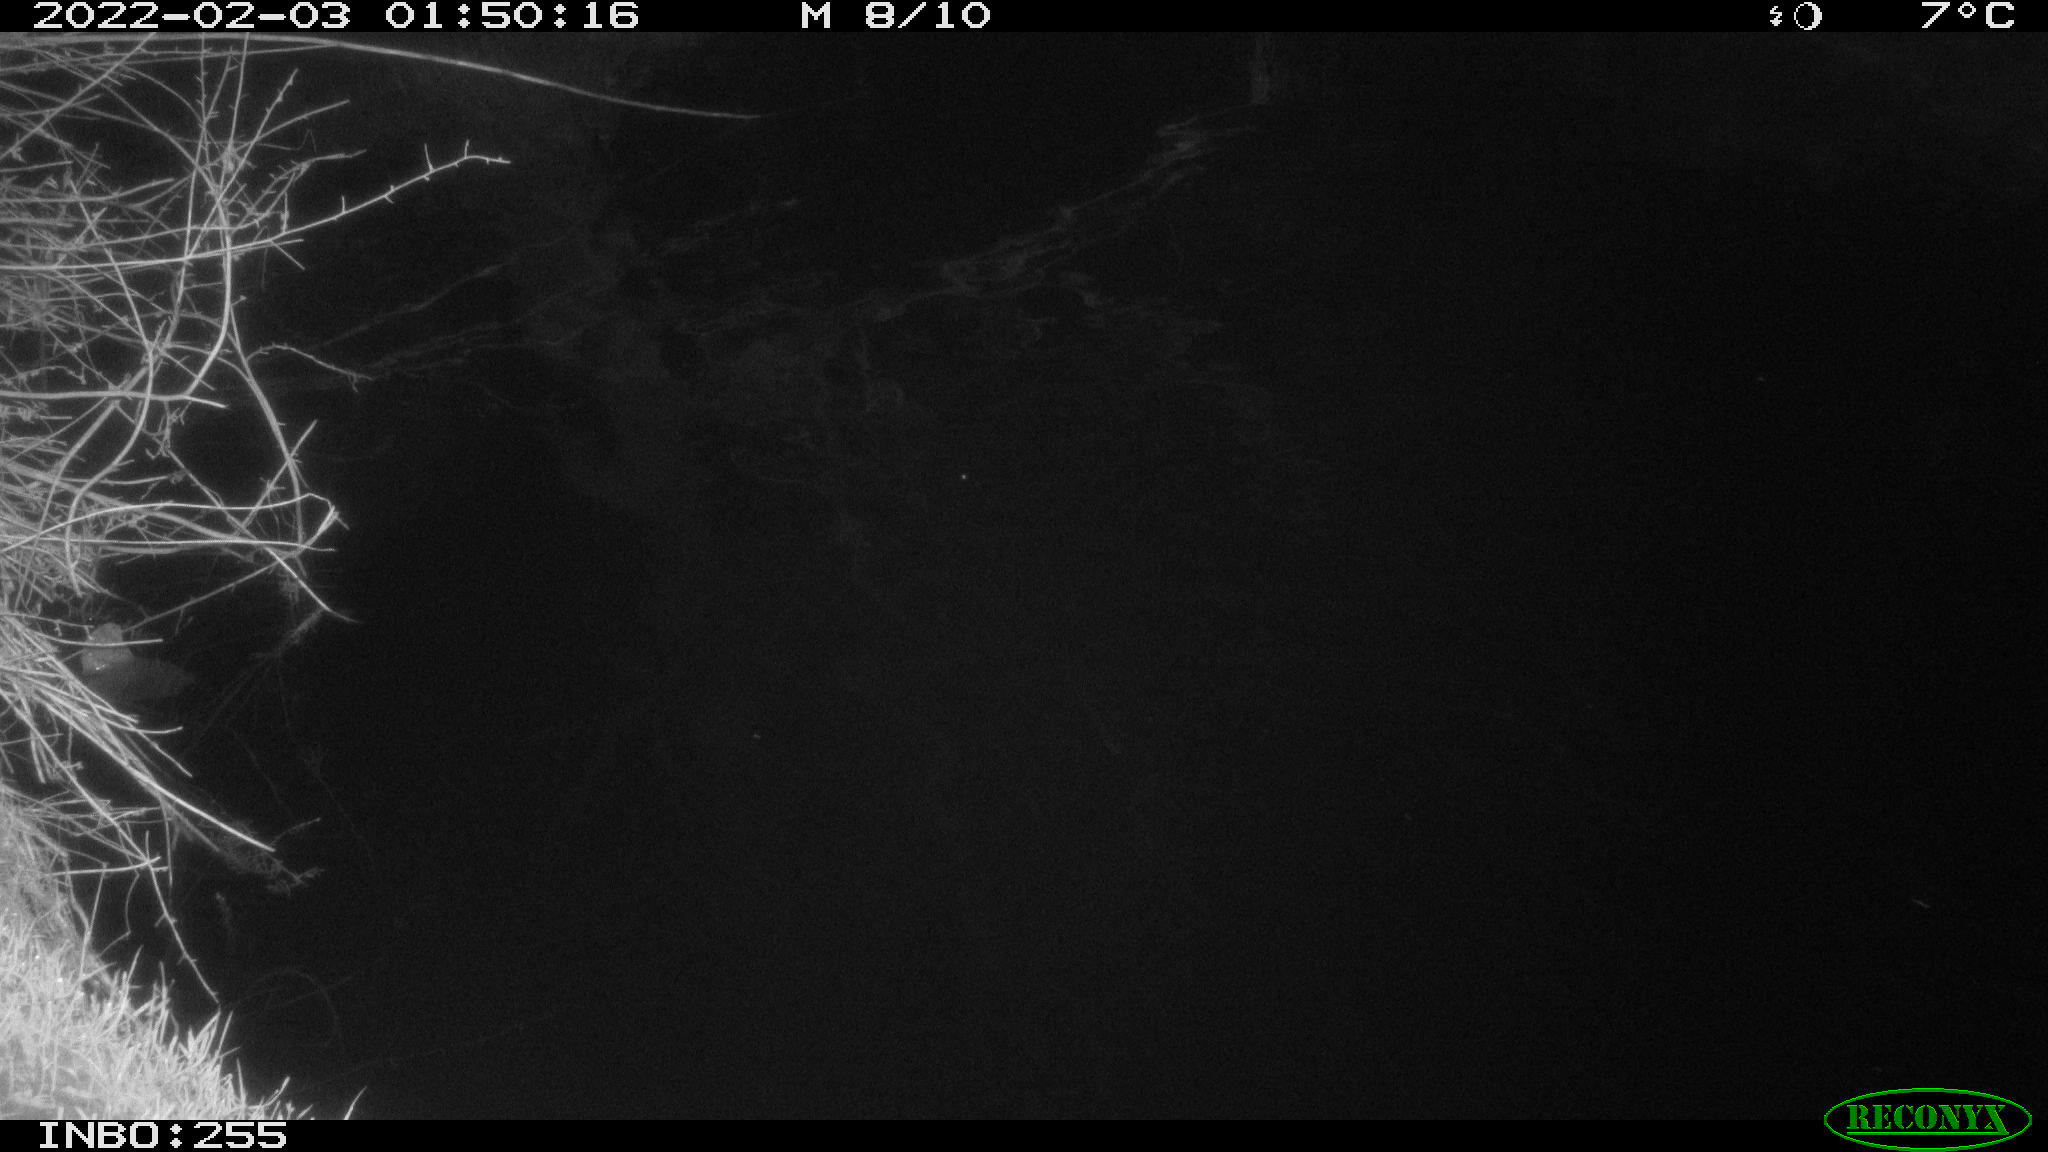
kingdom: Animalia
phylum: Chordata
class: Aves
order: Anseriformes
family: Anatidae
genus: Anas
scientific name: Anas
